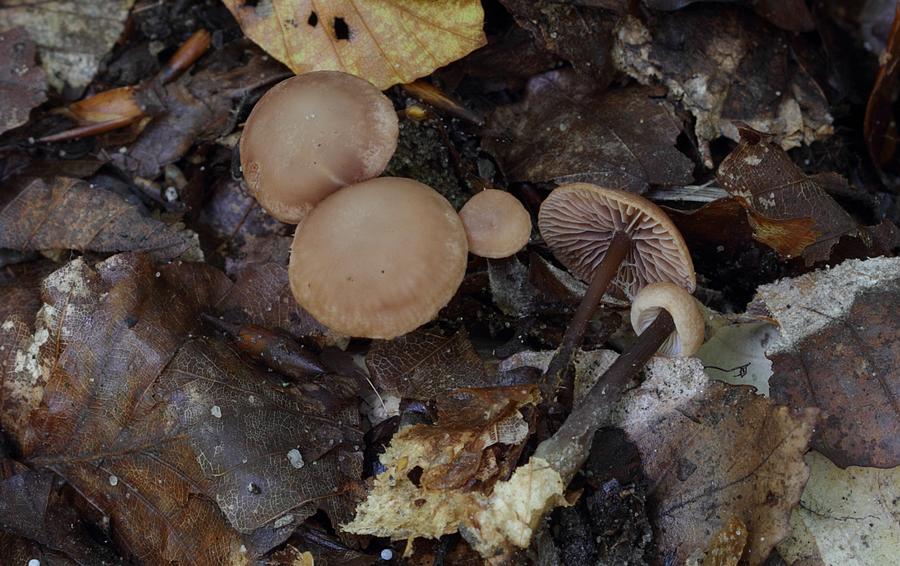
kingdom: Fungi
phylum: Basidiomycota
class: Agaricomycetes
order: Agaricales
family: Omphalotaceae
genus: Gymnopus
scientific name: Gymnopus fagiphilus
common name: bøgeløv-fladhat
